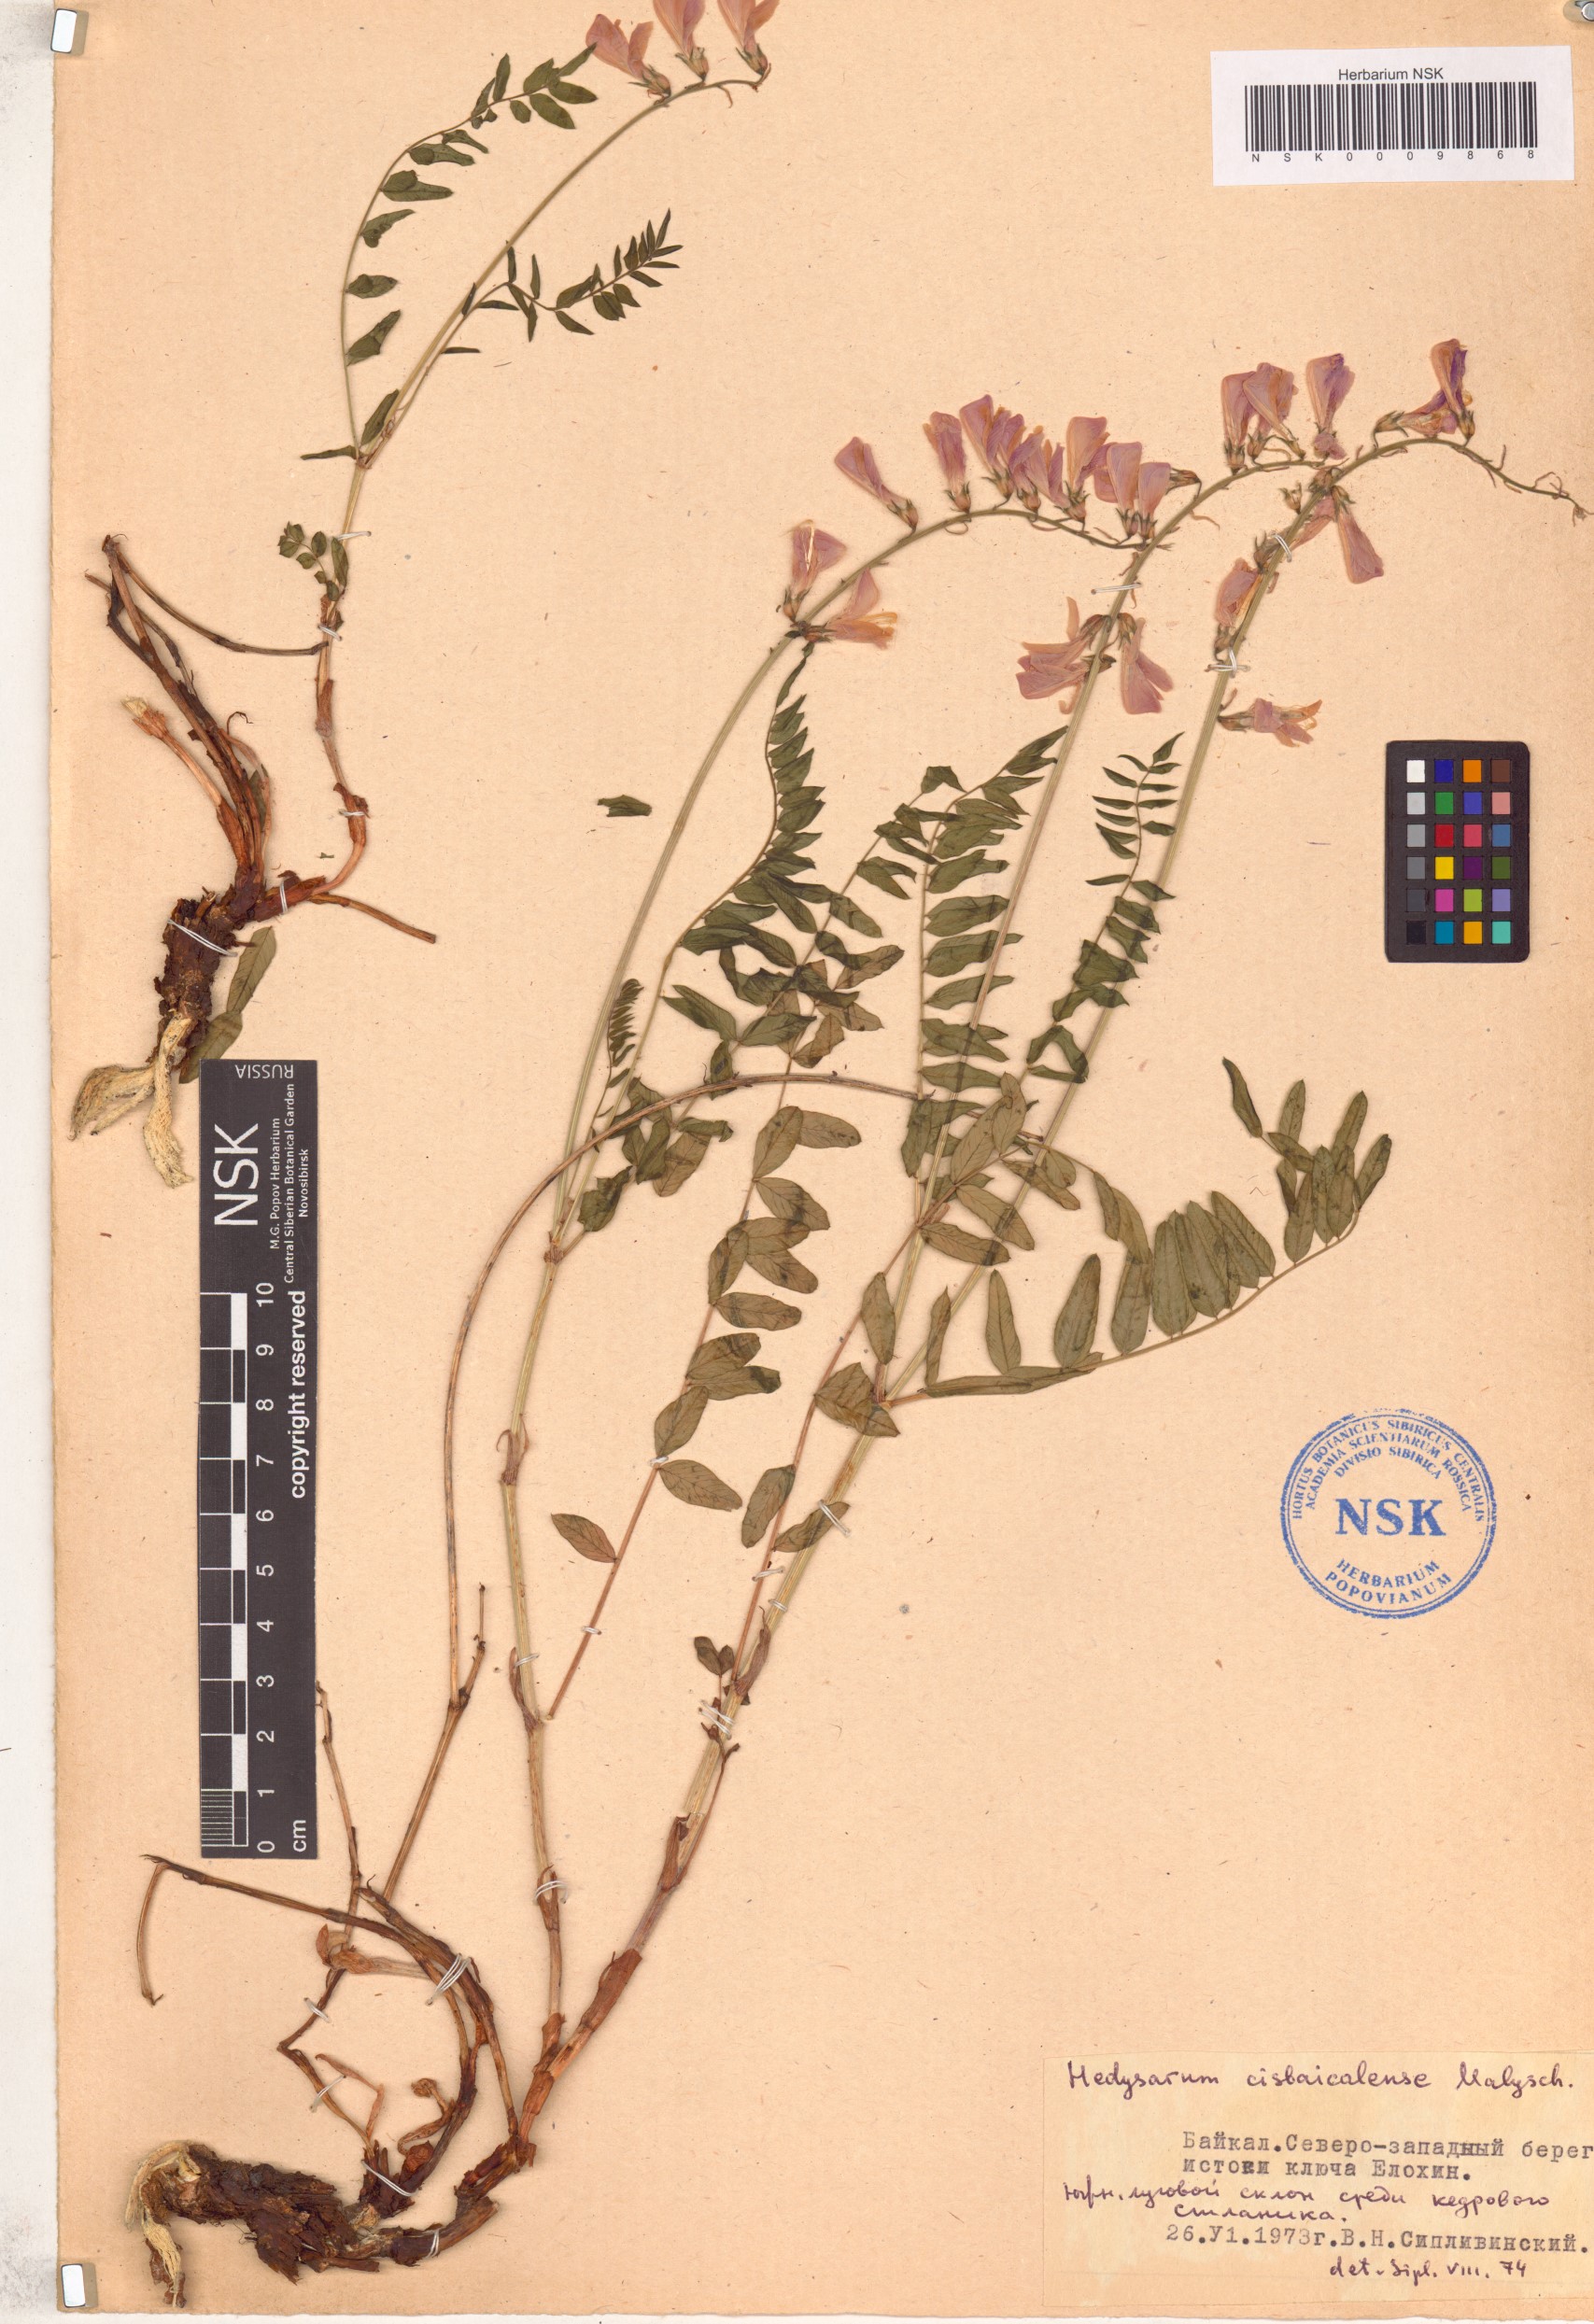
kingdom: Plantae
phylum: Tracheophyta
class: Magnoliopsida
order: Fabales
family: Fabaceae
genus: Hedysarum
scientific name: Hedysarum cisbaicalense
